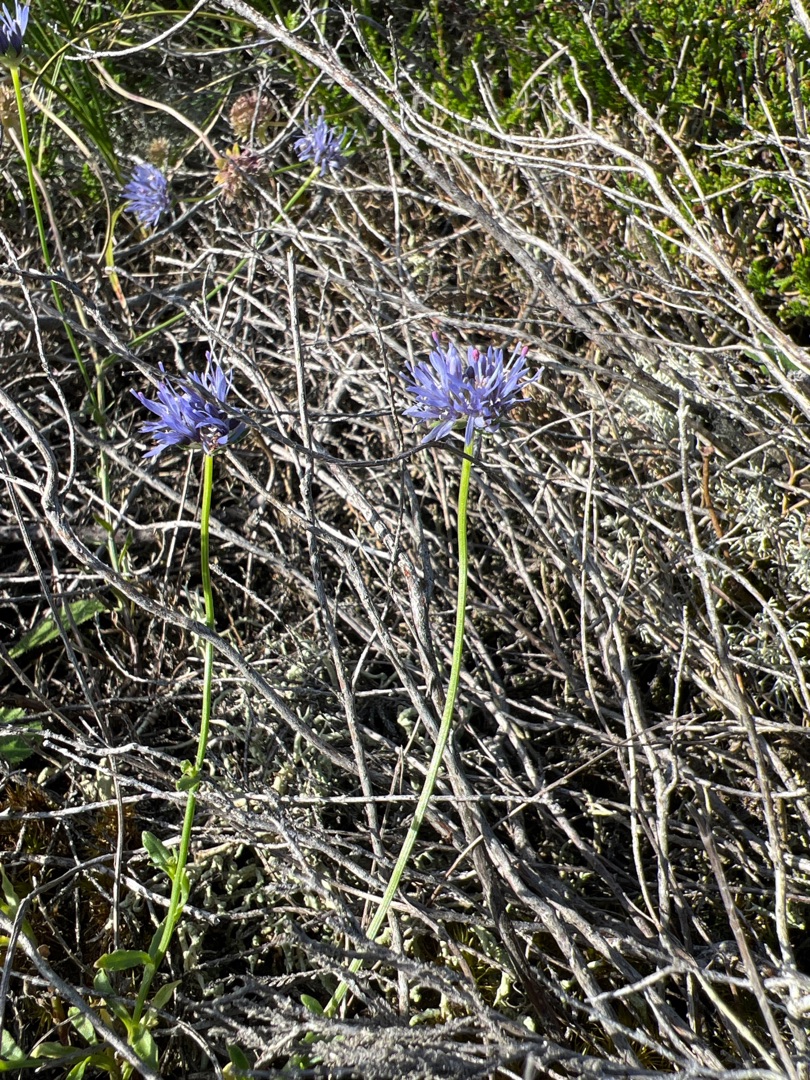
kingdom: Plantae
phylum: Tracheophyta
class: Magnoliopsida
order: Asterales
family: Campanulaceae
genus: Jasione
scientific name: Jasione montana
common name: Blåmunke
